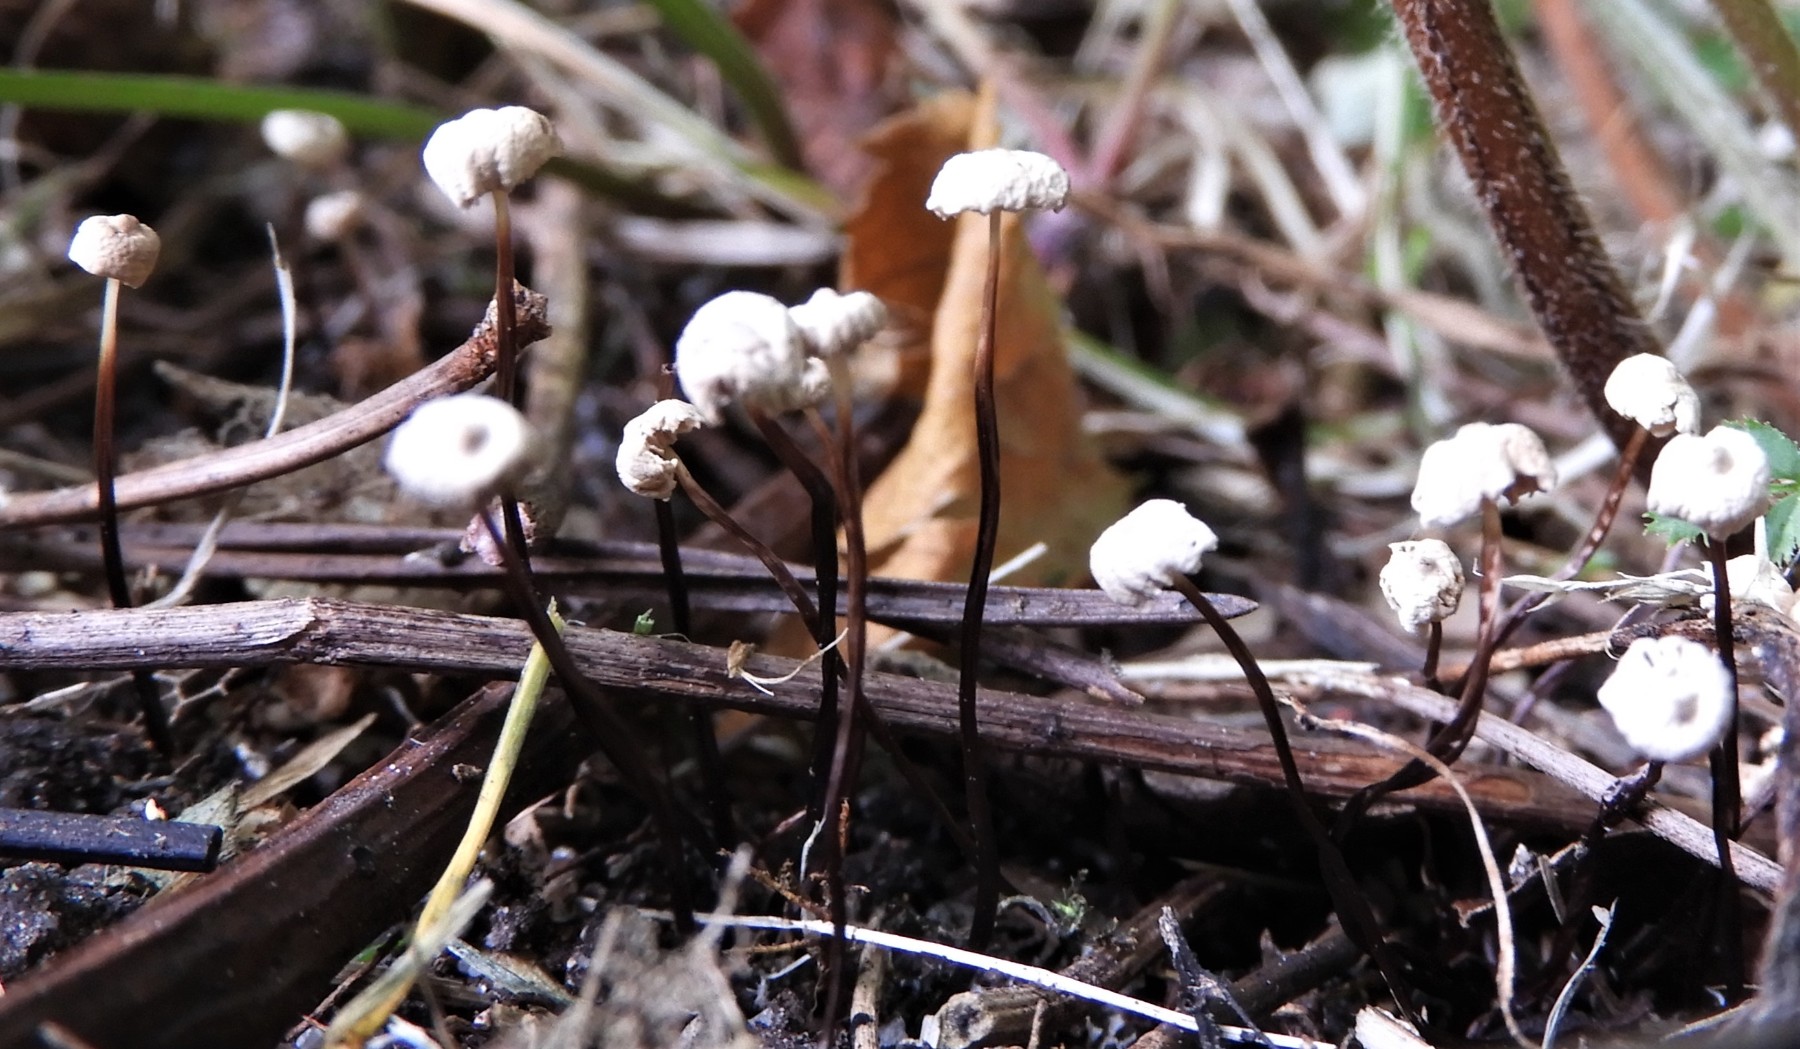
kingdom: Fungi
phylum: Basidiomycota
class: Agaricomycetes
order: Agaricales
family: Marasmiaceae
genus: Marasmius
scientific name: Marasmius rotula
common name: hjul-bruskhat
